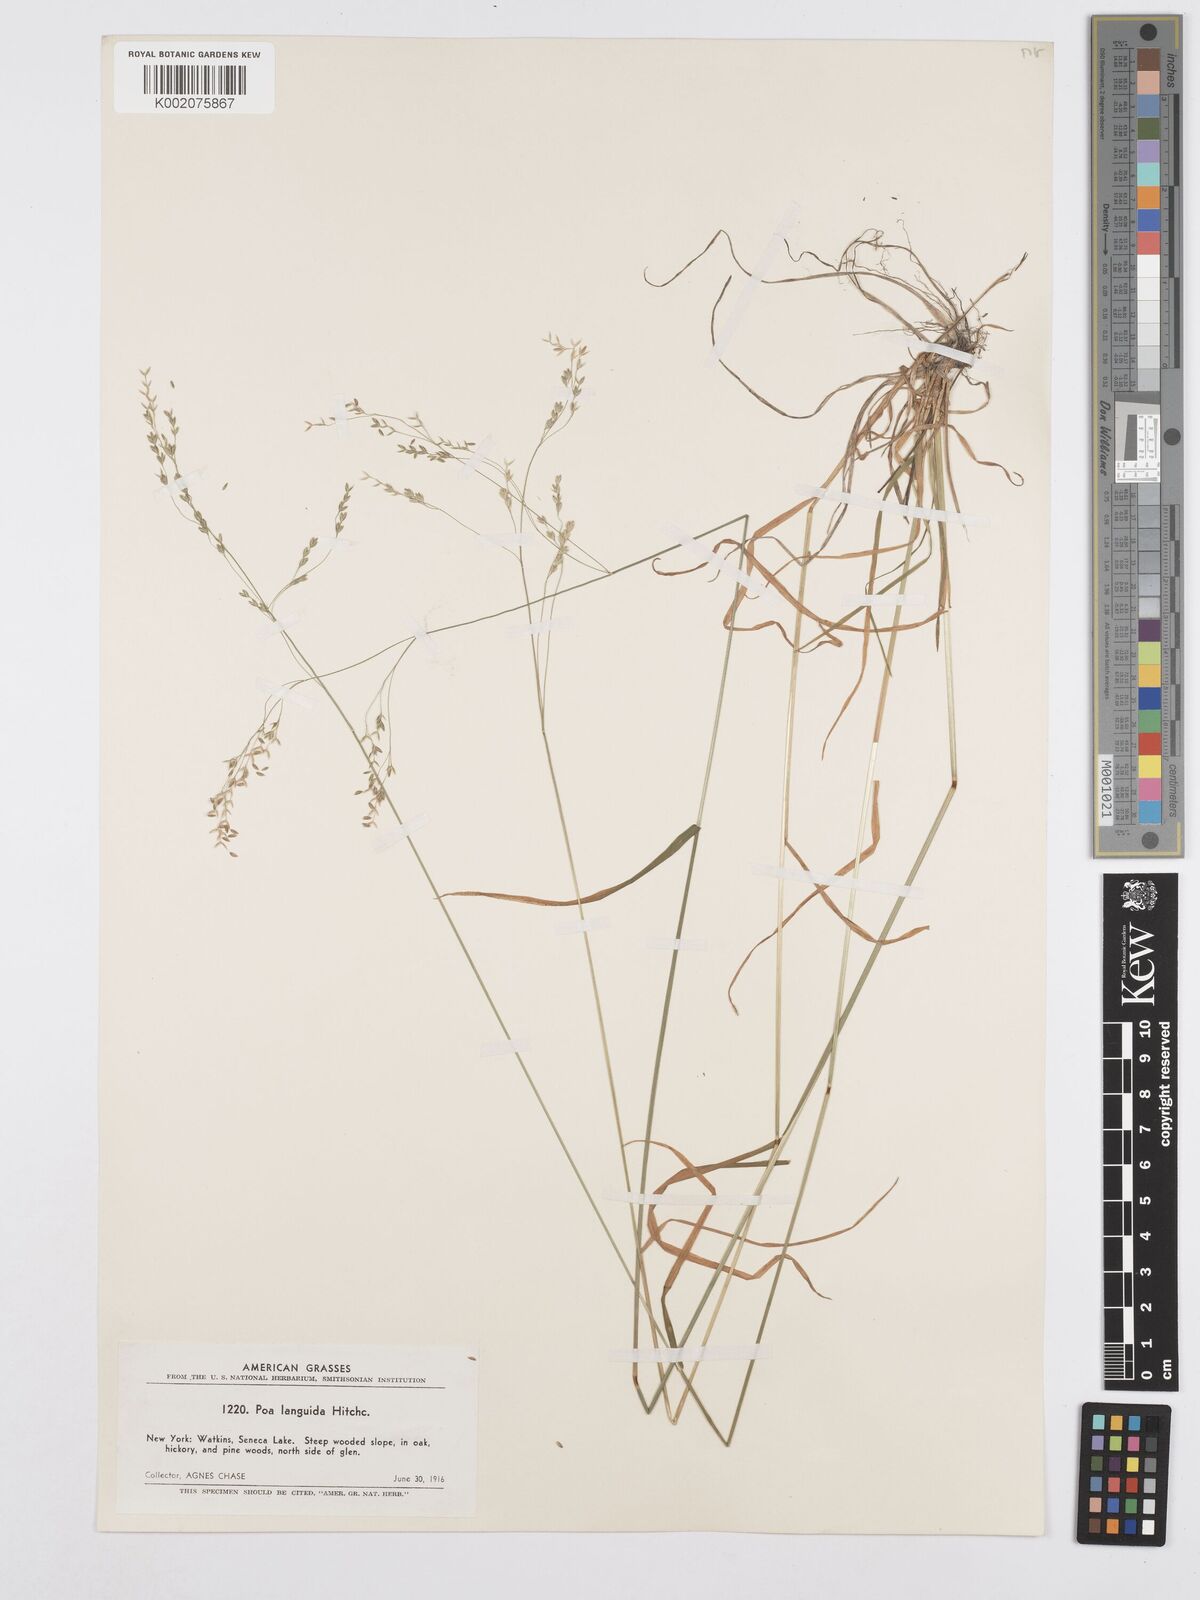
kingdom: Plantae
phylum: Tracheophyta
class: Liliopsida
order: Poales
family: Poaceae
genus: Poa
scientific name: Poa saltuensis
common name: Bushy pasture speargrass
